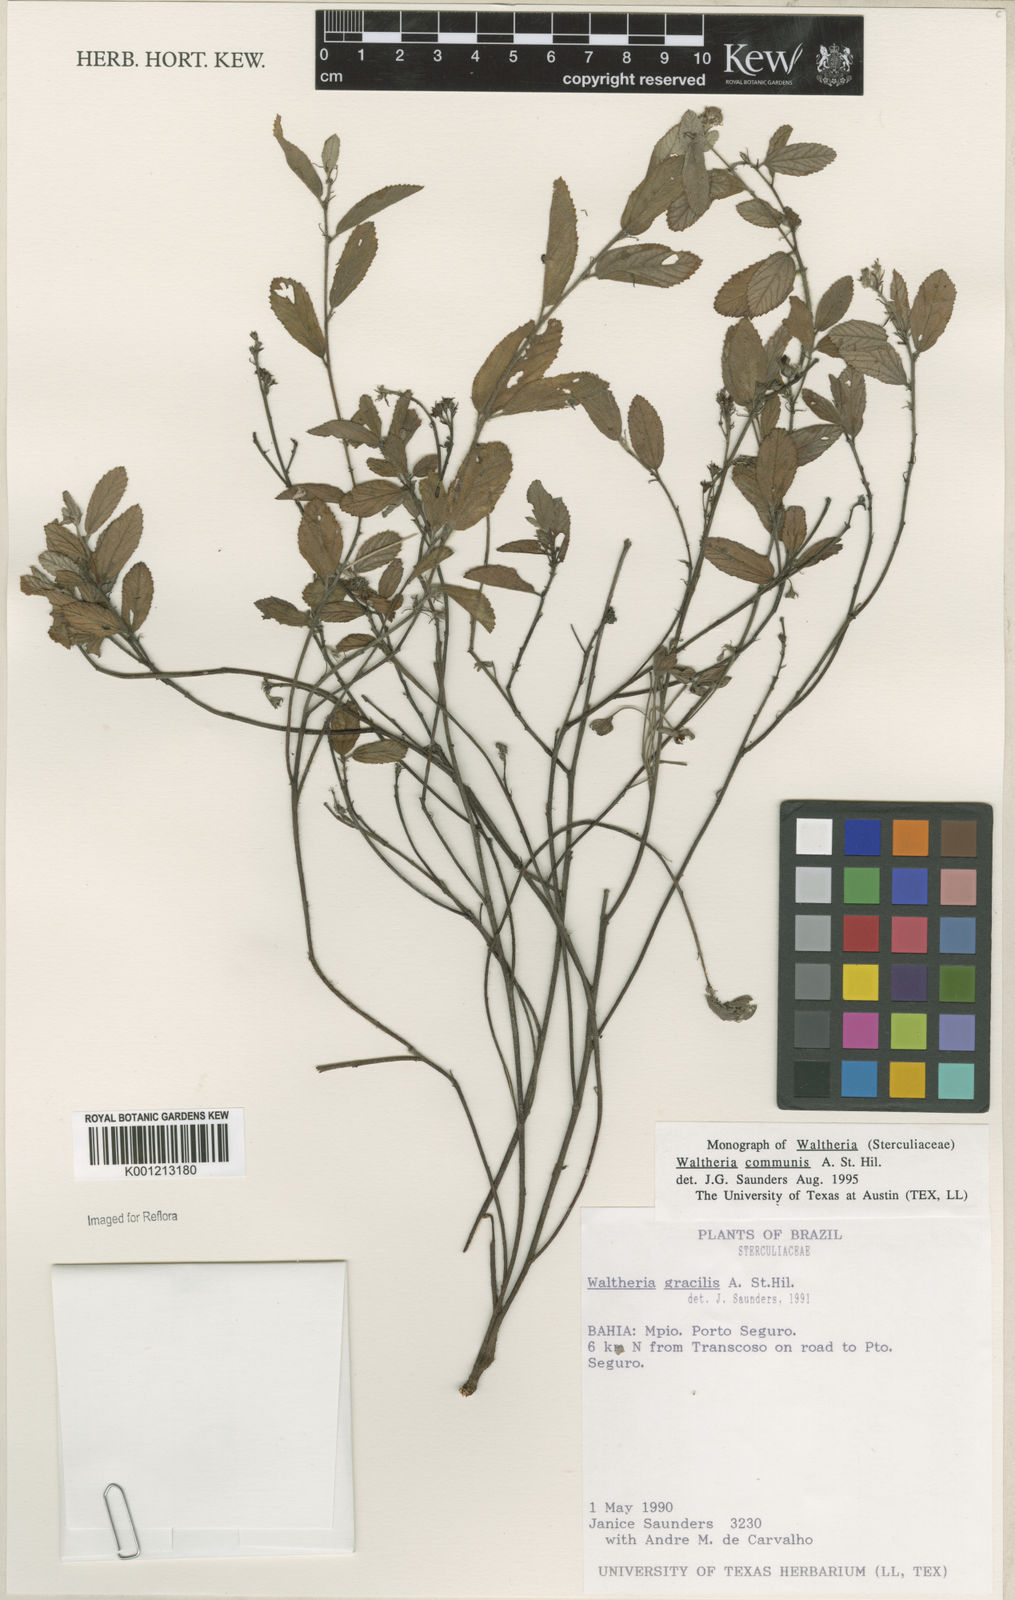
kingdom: Plantae
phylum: Tracheophyta
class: Magnoliopsida
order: Malvales
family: Malvaceae
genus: Waltheria
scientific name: Waltheria communis
